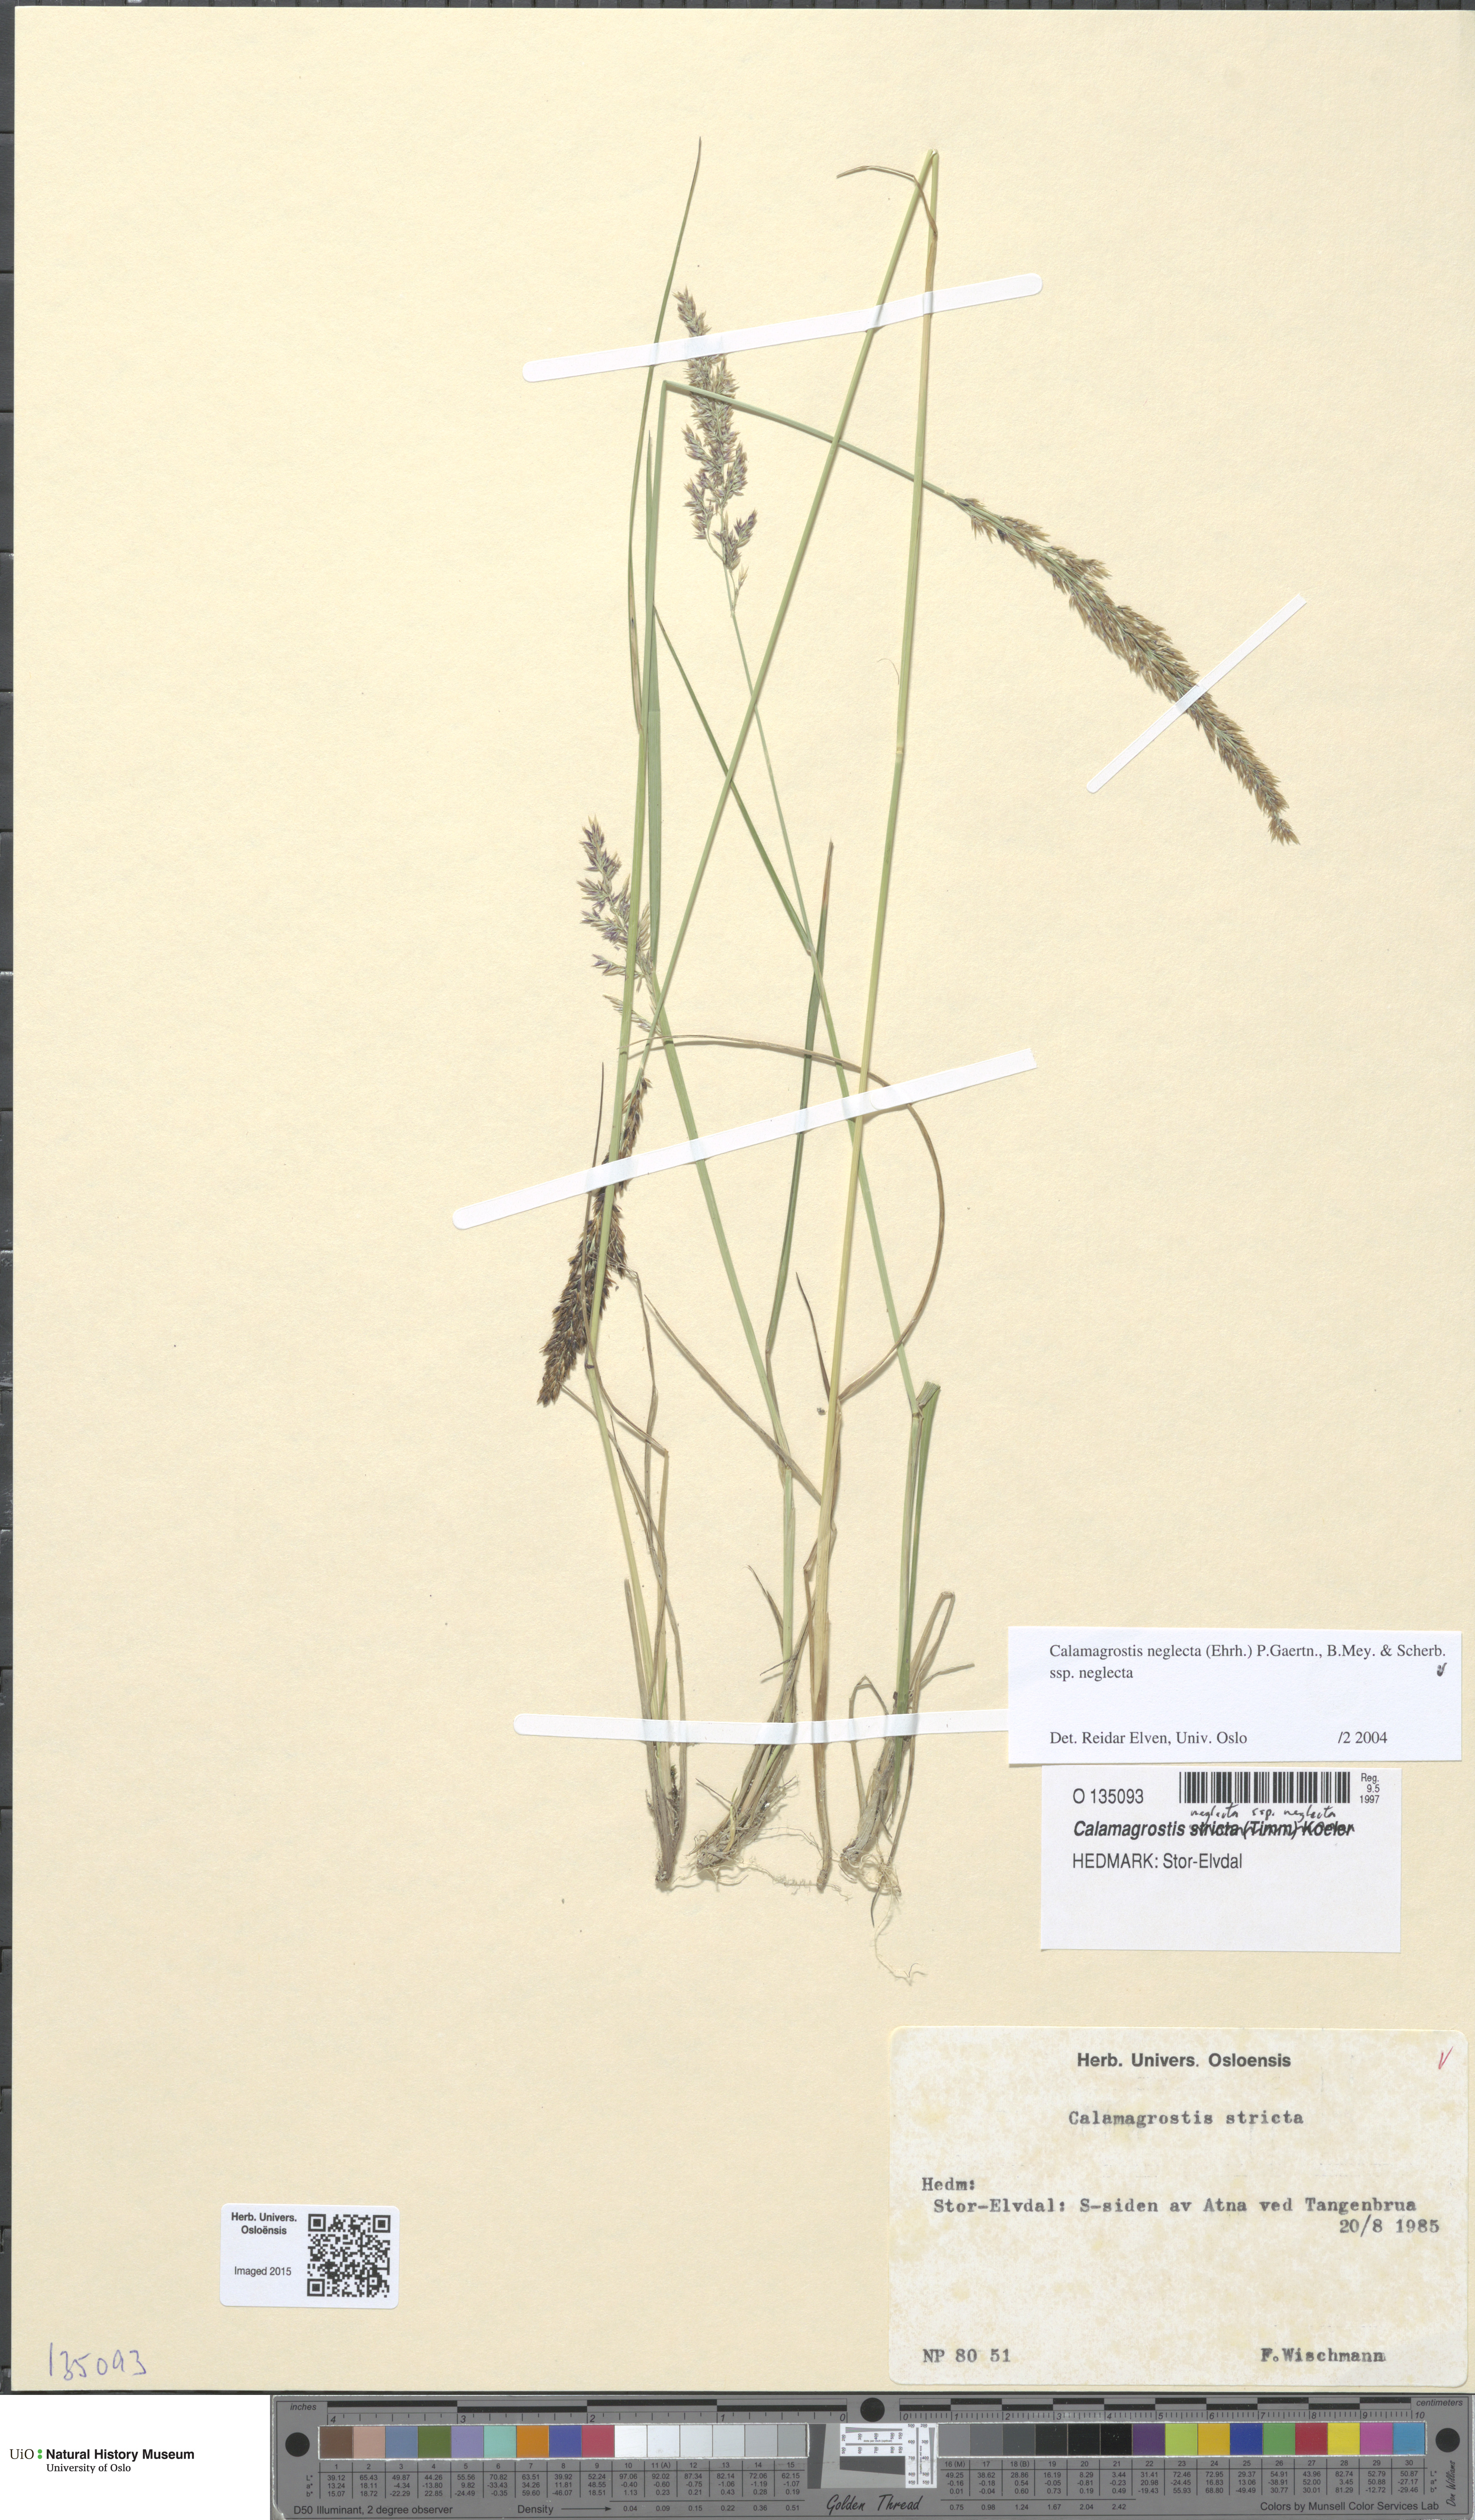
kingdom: Plantae
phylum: Tracheophyta
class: Liliopsida
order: Poales
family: Poaceae
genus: Achnatherum
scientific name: Achnatherum calamagrostis
